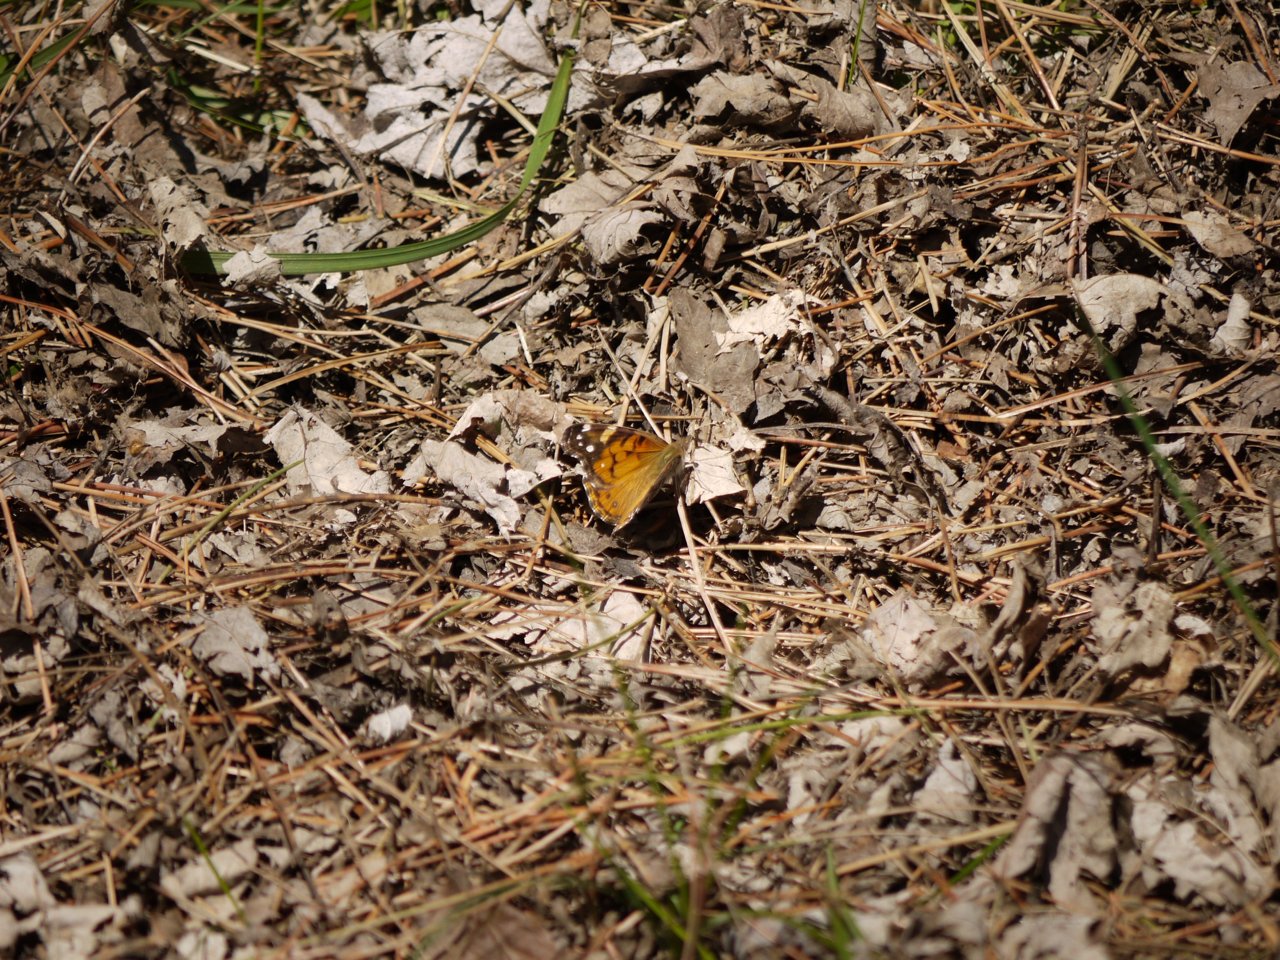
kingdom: Animalia
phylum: Arthropoda
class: Insecta
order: Lepidoptera
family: Nymphalidae
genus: Vanessa
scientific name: Vanessa virginiensis
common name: American Lady
